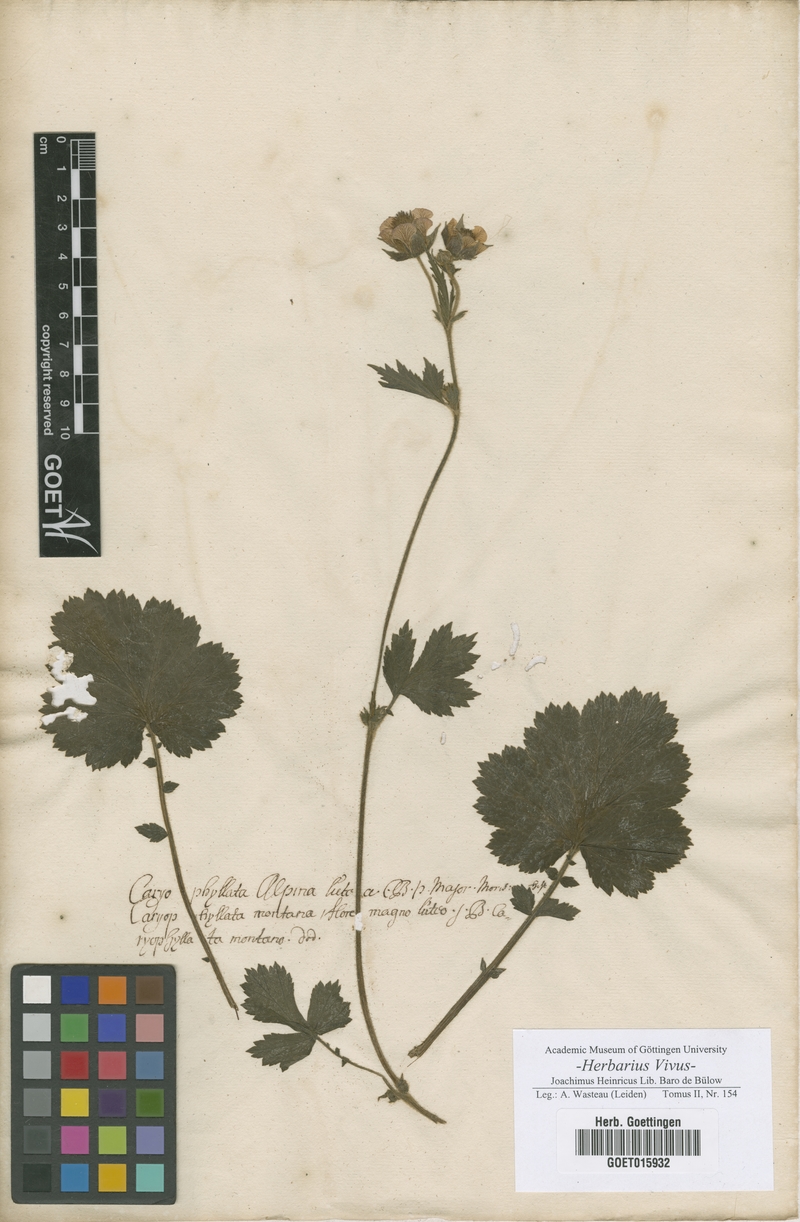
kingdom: Plantae
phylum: Tracheophyta
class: Magnoliopsida
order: Rosales
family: Rosaceae
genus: Geum
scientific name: Geum montanum
